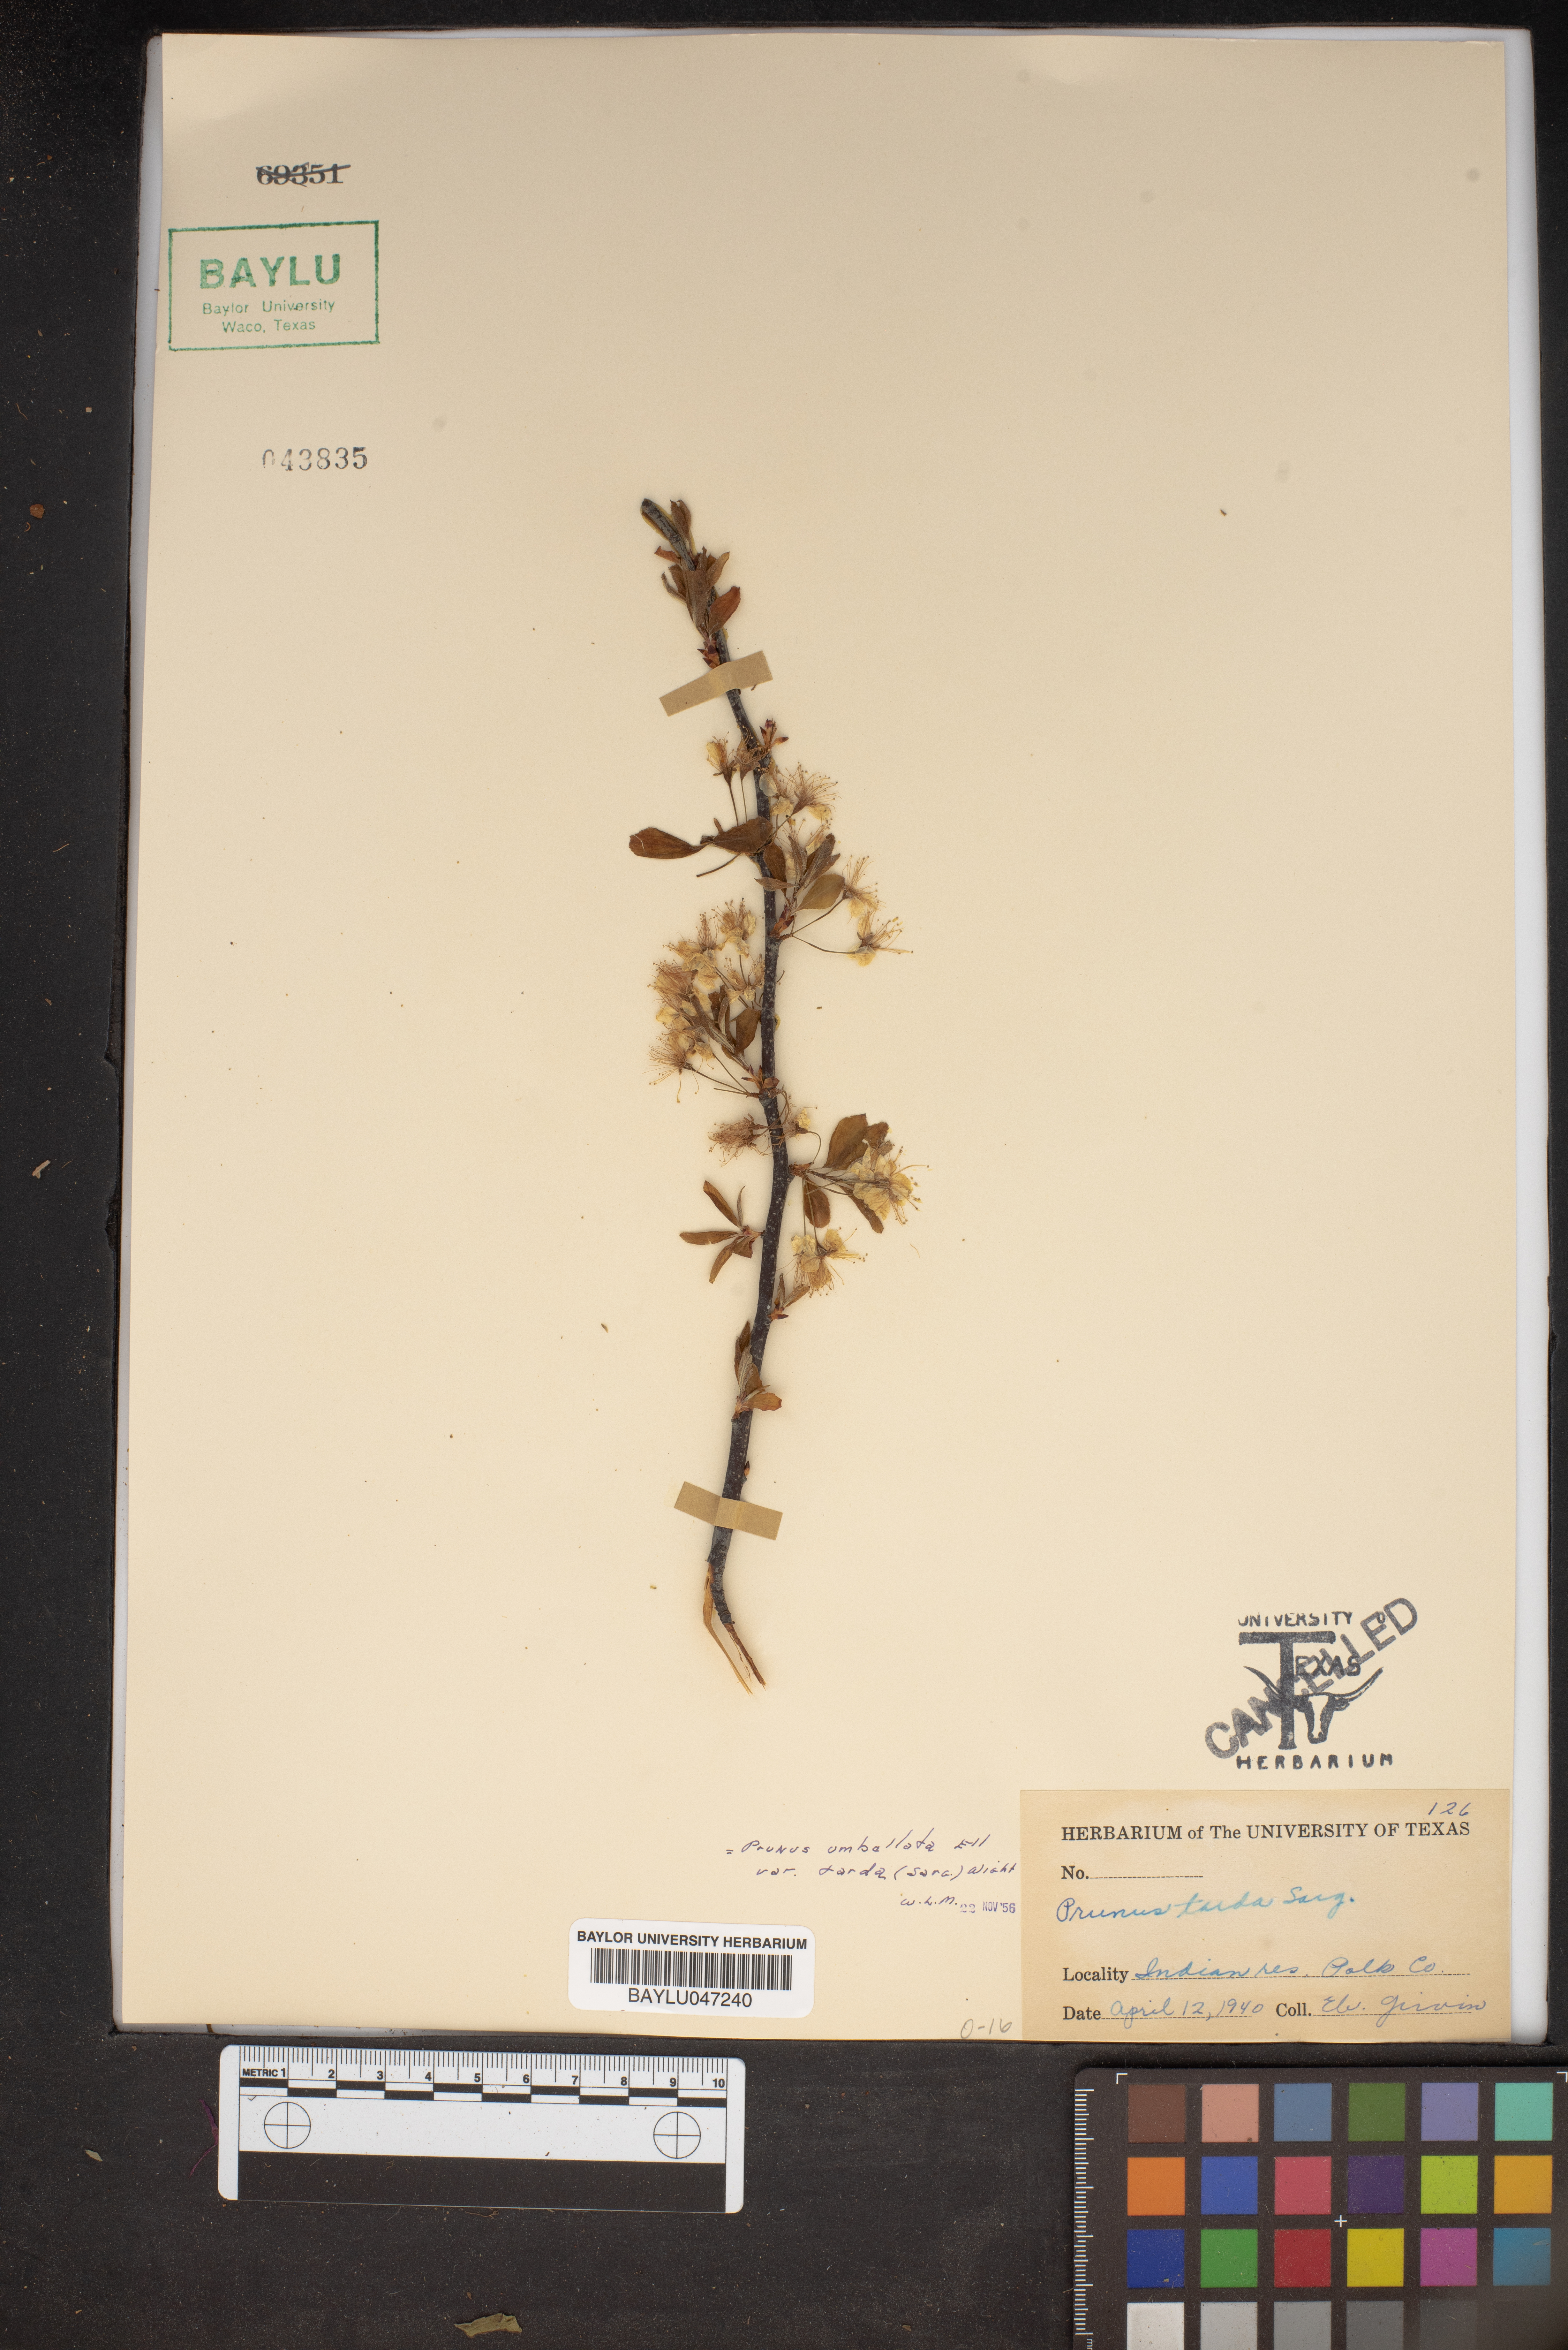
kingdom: Plantae
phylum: Tracheophyta
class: Magnoliopsida
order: Rosales
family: Rosaceae
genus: Prunus
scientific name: Prunus umbellata
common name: Allegheny plum
